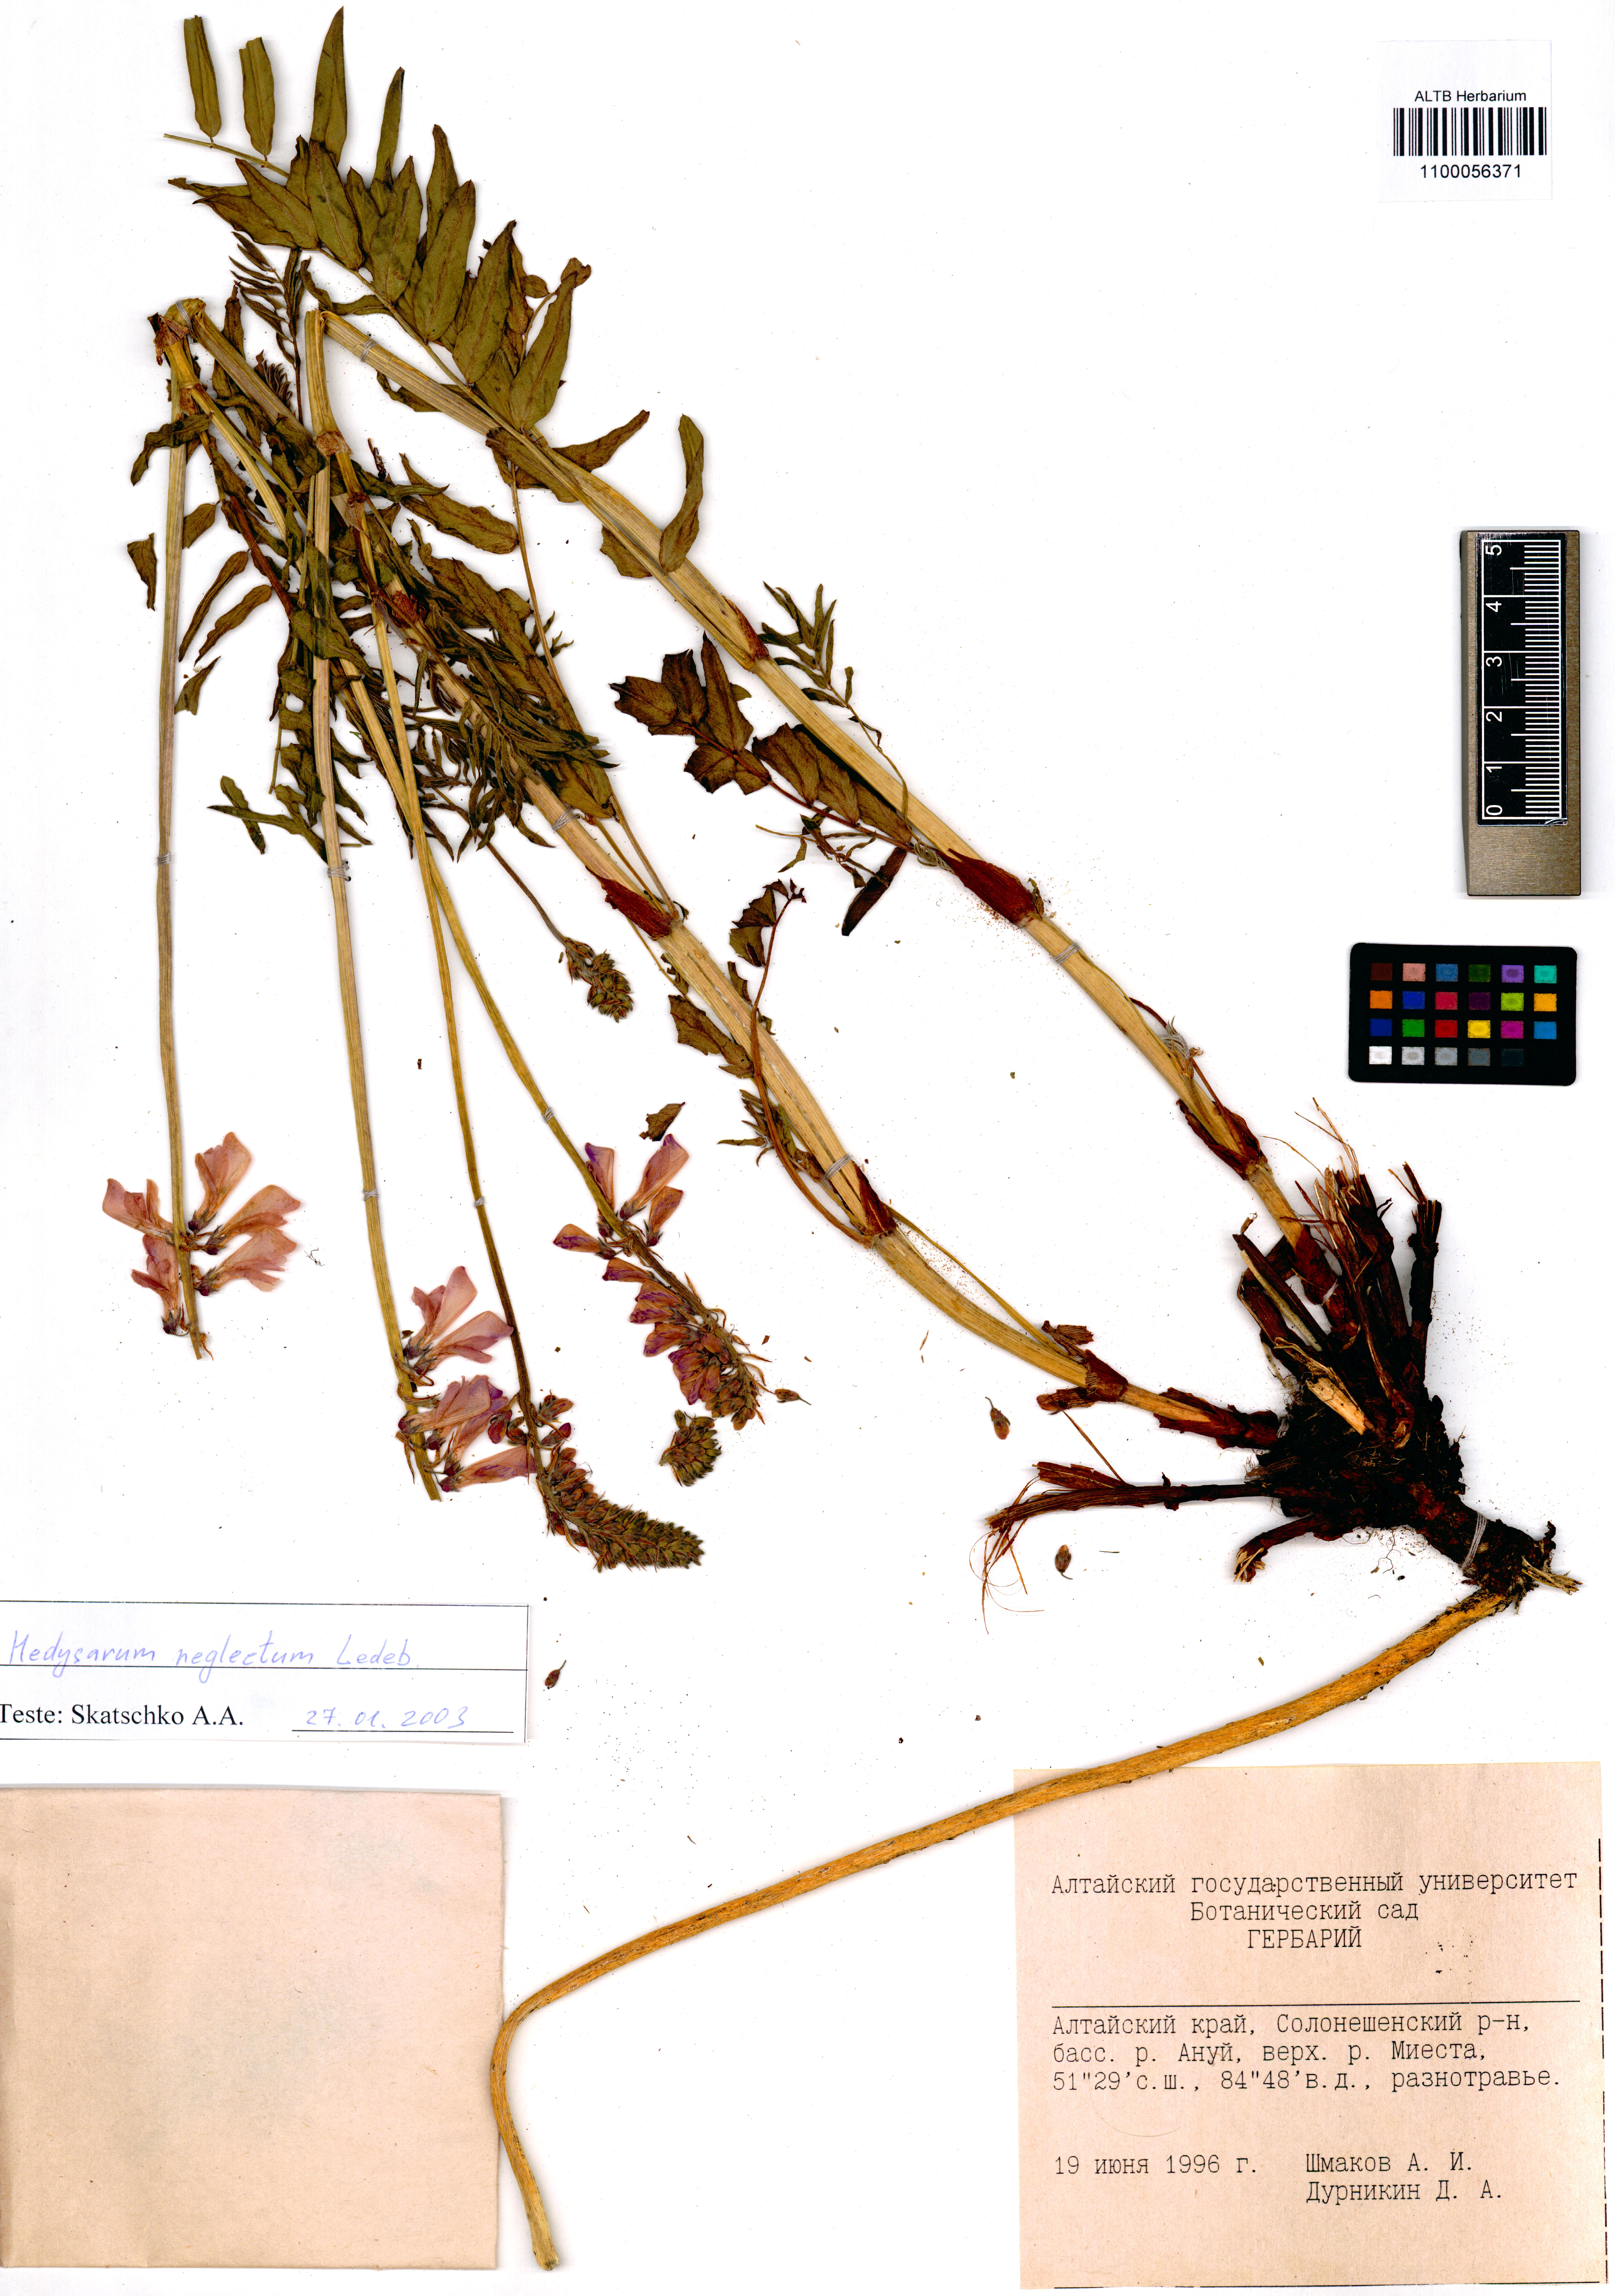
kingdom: Plantae
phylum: Tracheophyta
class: Magnoliopsida
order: Fabales
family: Fabaceae
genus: Hedysarum
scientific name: Hedysarum neglectum
